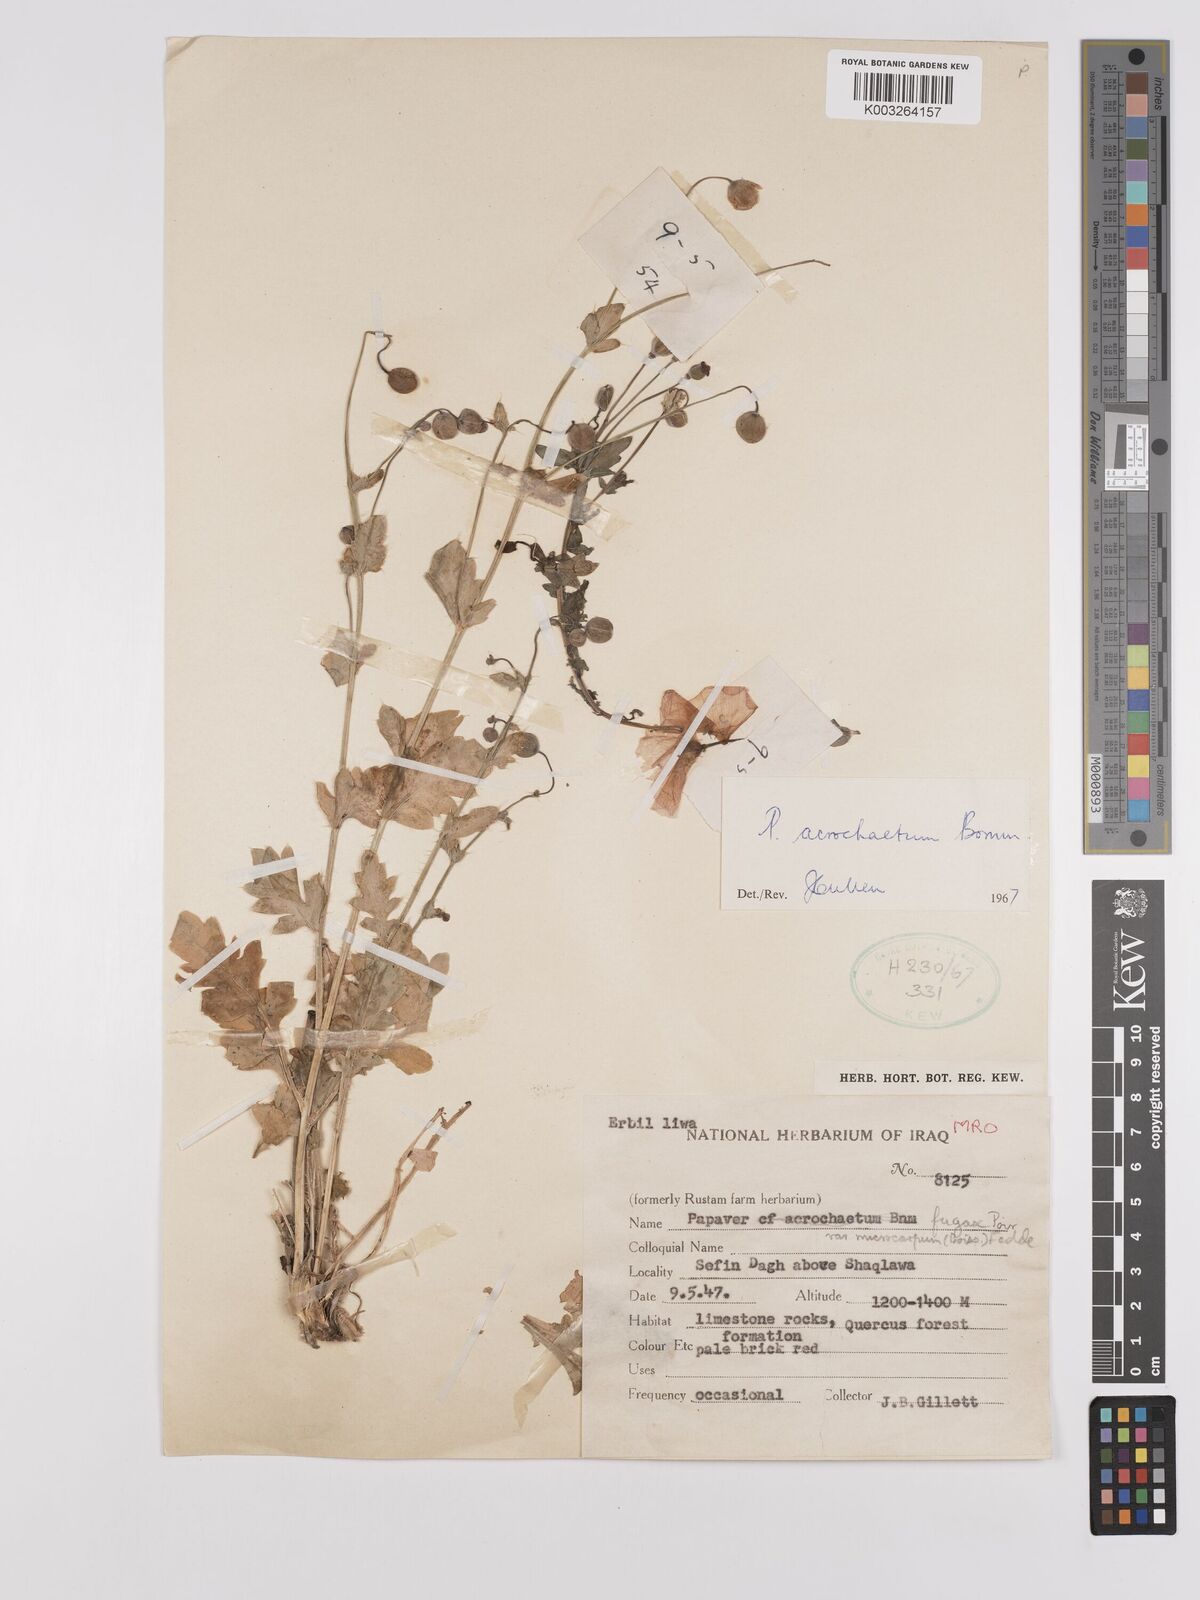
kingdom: Plantae
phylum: Tracheophyta
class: Magnoliopsida
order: Ranunculales
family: Papaveraceae
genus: Papaver
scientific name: Papaver acrochaetum
